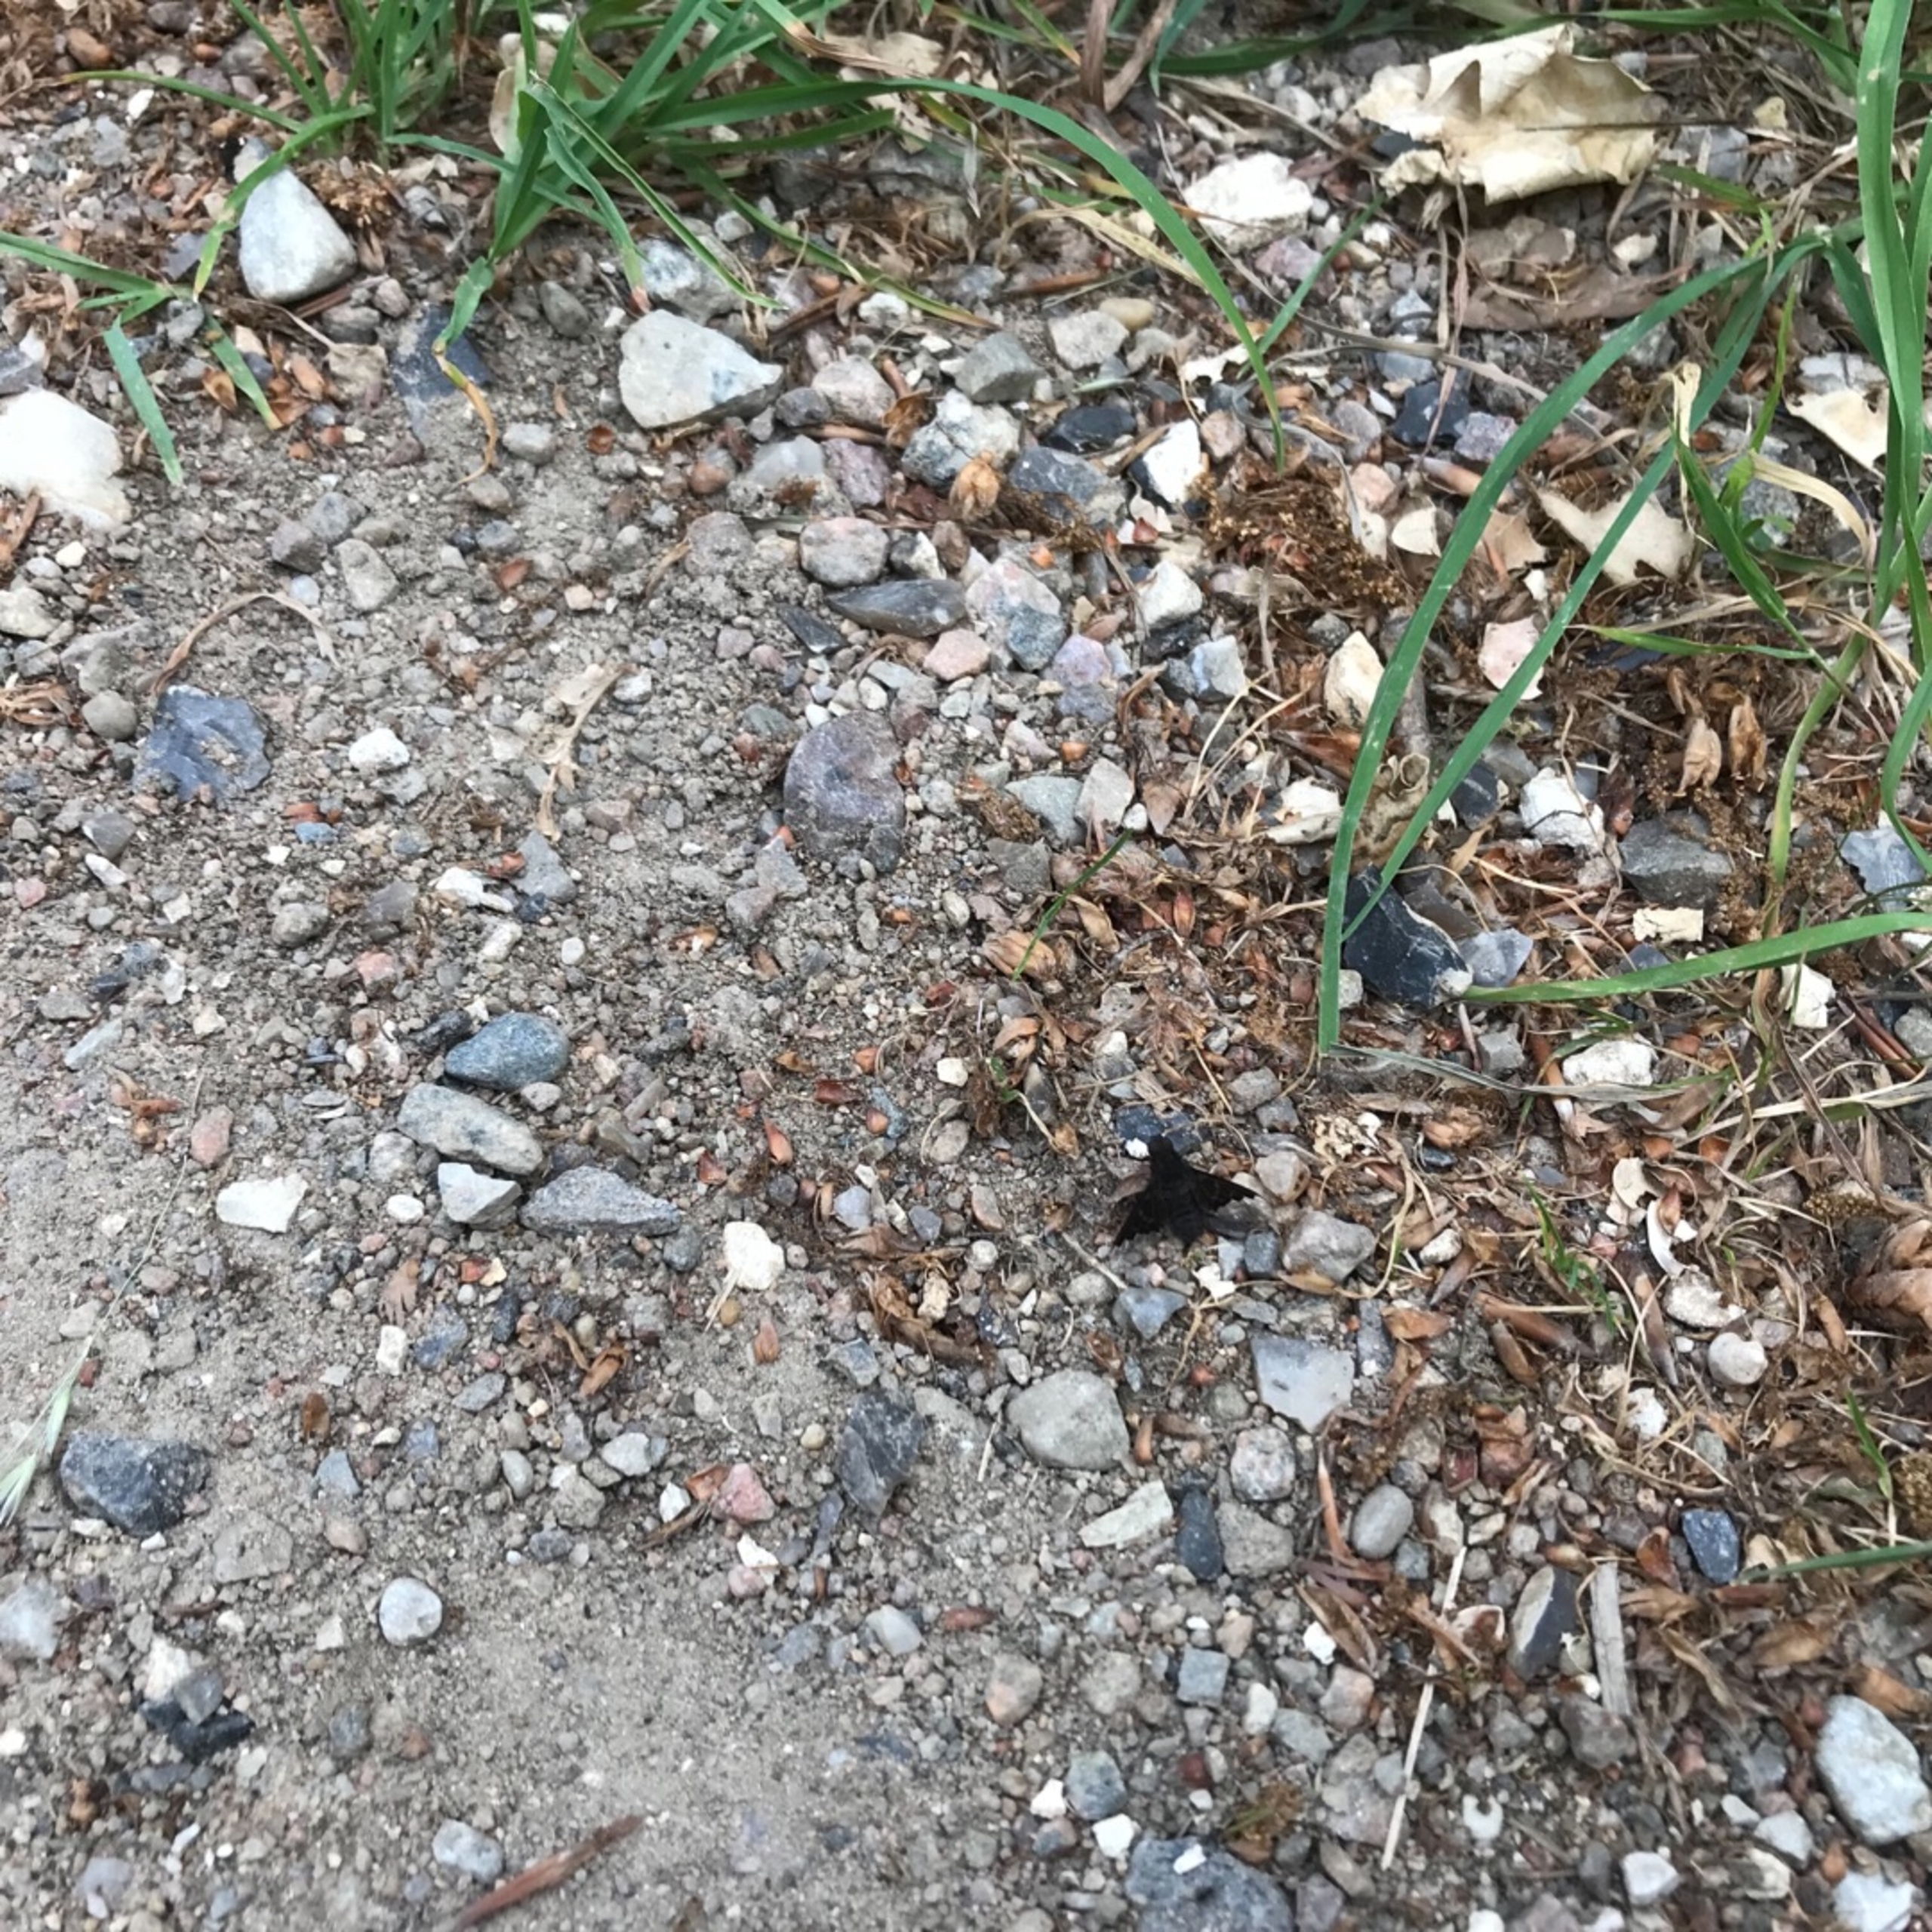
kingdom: Animalia
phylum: Arthropoda
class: Insecta
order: Diptera
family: Bombyliidae
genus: Hemipenthes
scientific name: Hemipenthes morio
